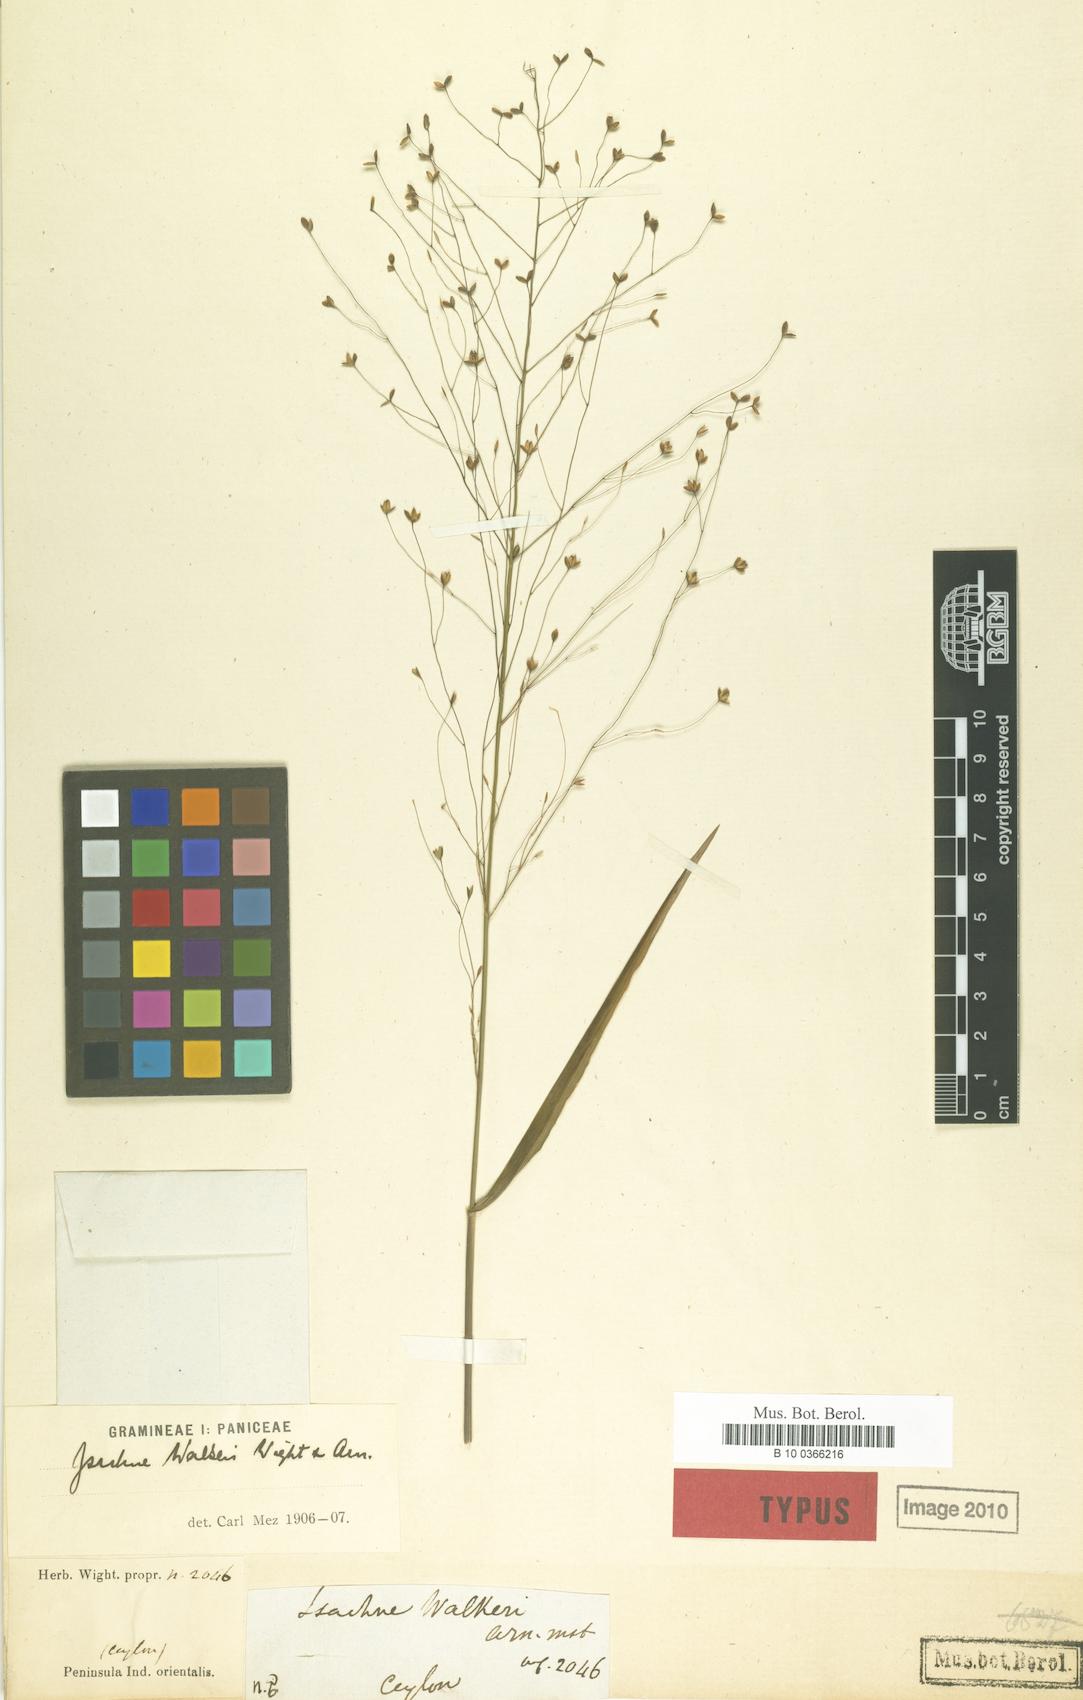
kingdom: Plantae
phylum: Tracheophyta
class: Liliopsida
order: Poales
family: Poaceae
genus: Isachne
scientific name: Isachne walkeri
